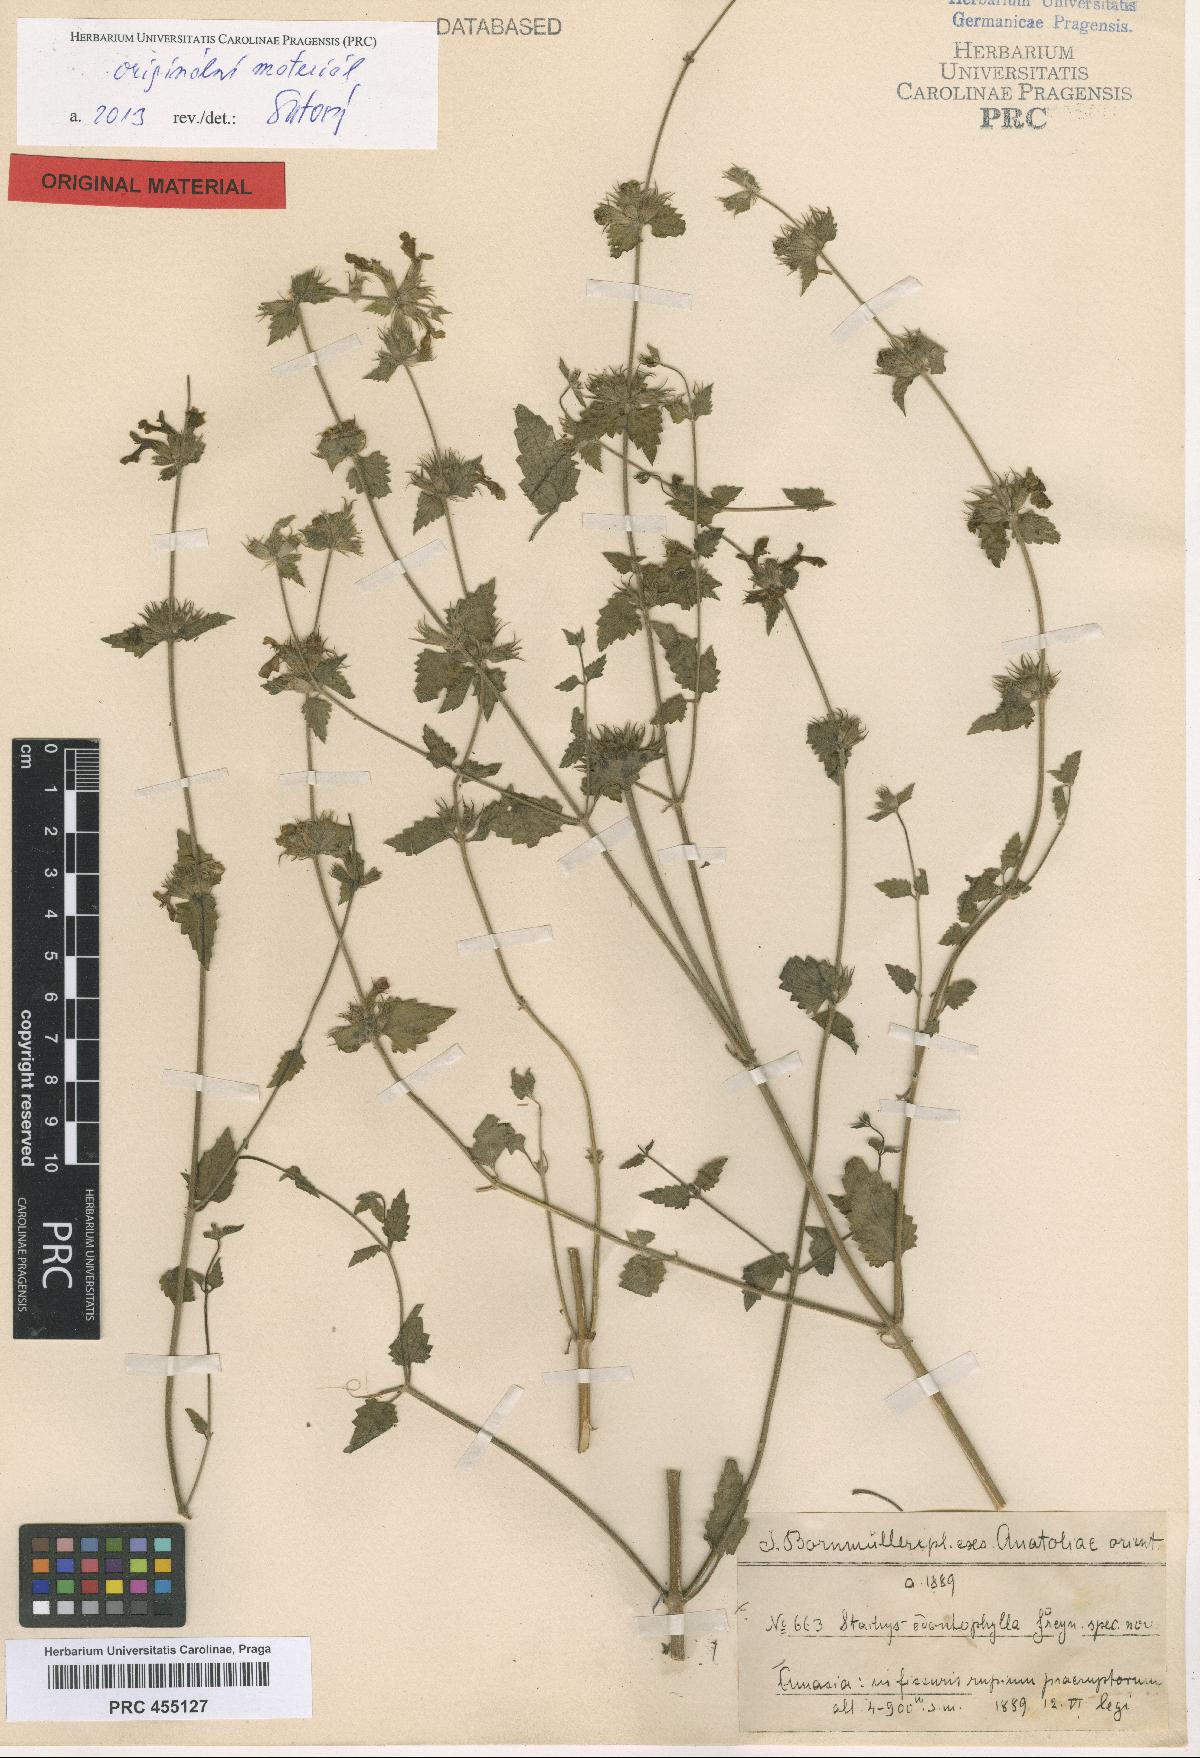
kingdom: Plantae
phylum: Tracheophyta
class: Magnoliopsida
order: Lamiales
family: Lamiaceae
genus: Stachys
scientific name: Stachys viscosa
